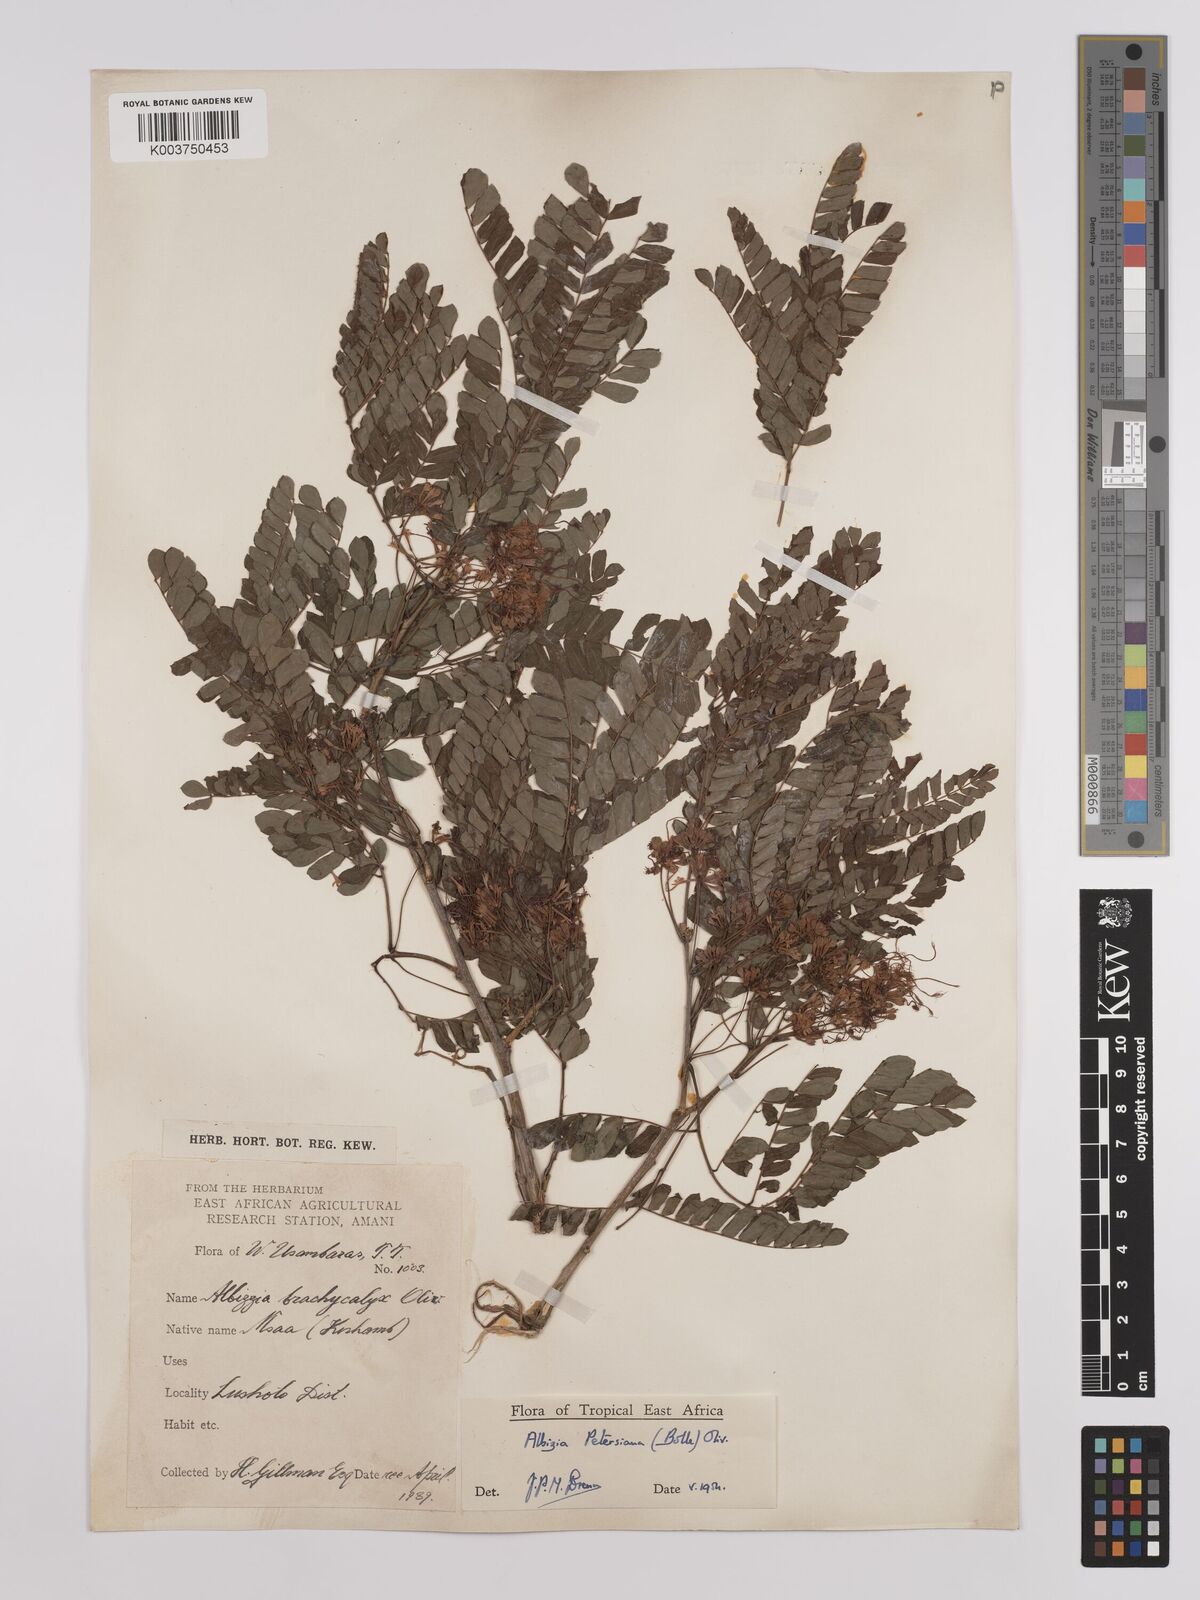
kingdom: Plantae
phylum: Tracheophyta
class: Magnoliopsida
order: Fabales
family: Fabaceae
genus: Albizia
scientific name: Albizia petersiana
